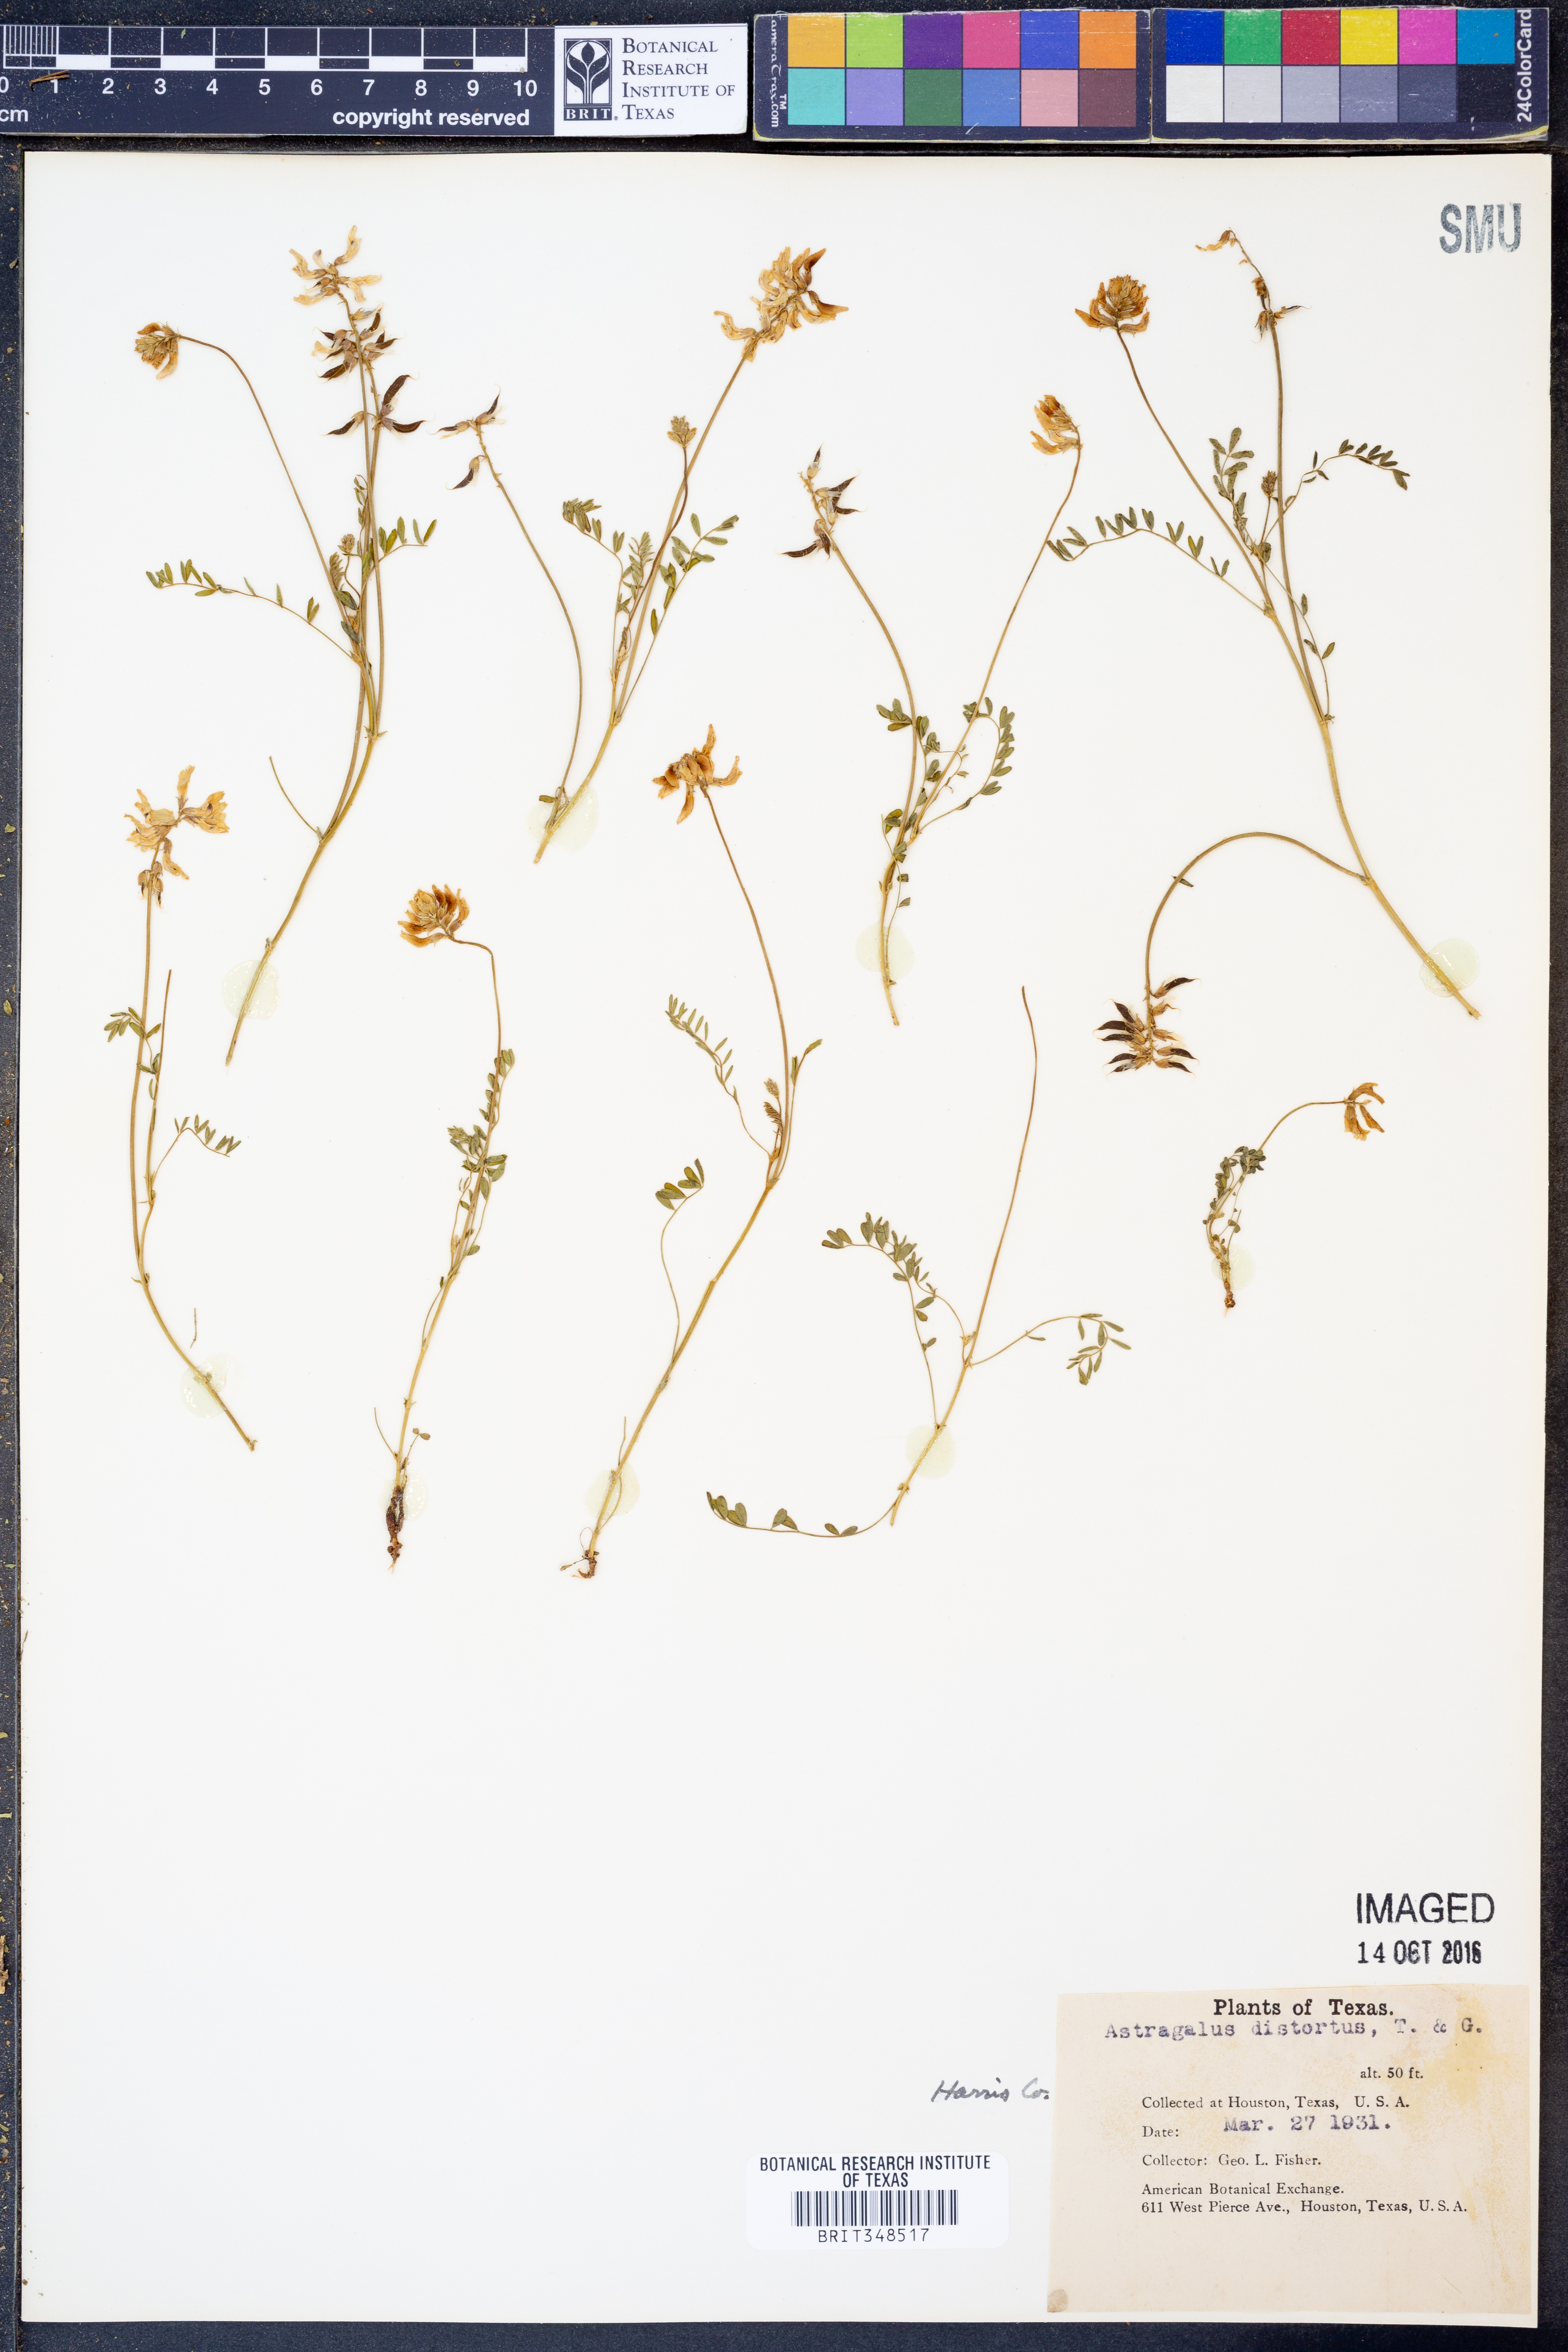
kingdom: Plantae
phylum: Tracheophyta
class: Magnoliopsida
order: Fabales
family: Fabaceae
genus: Astragalus
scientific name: Astragalus distortus
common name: Ozark milk-vetch
